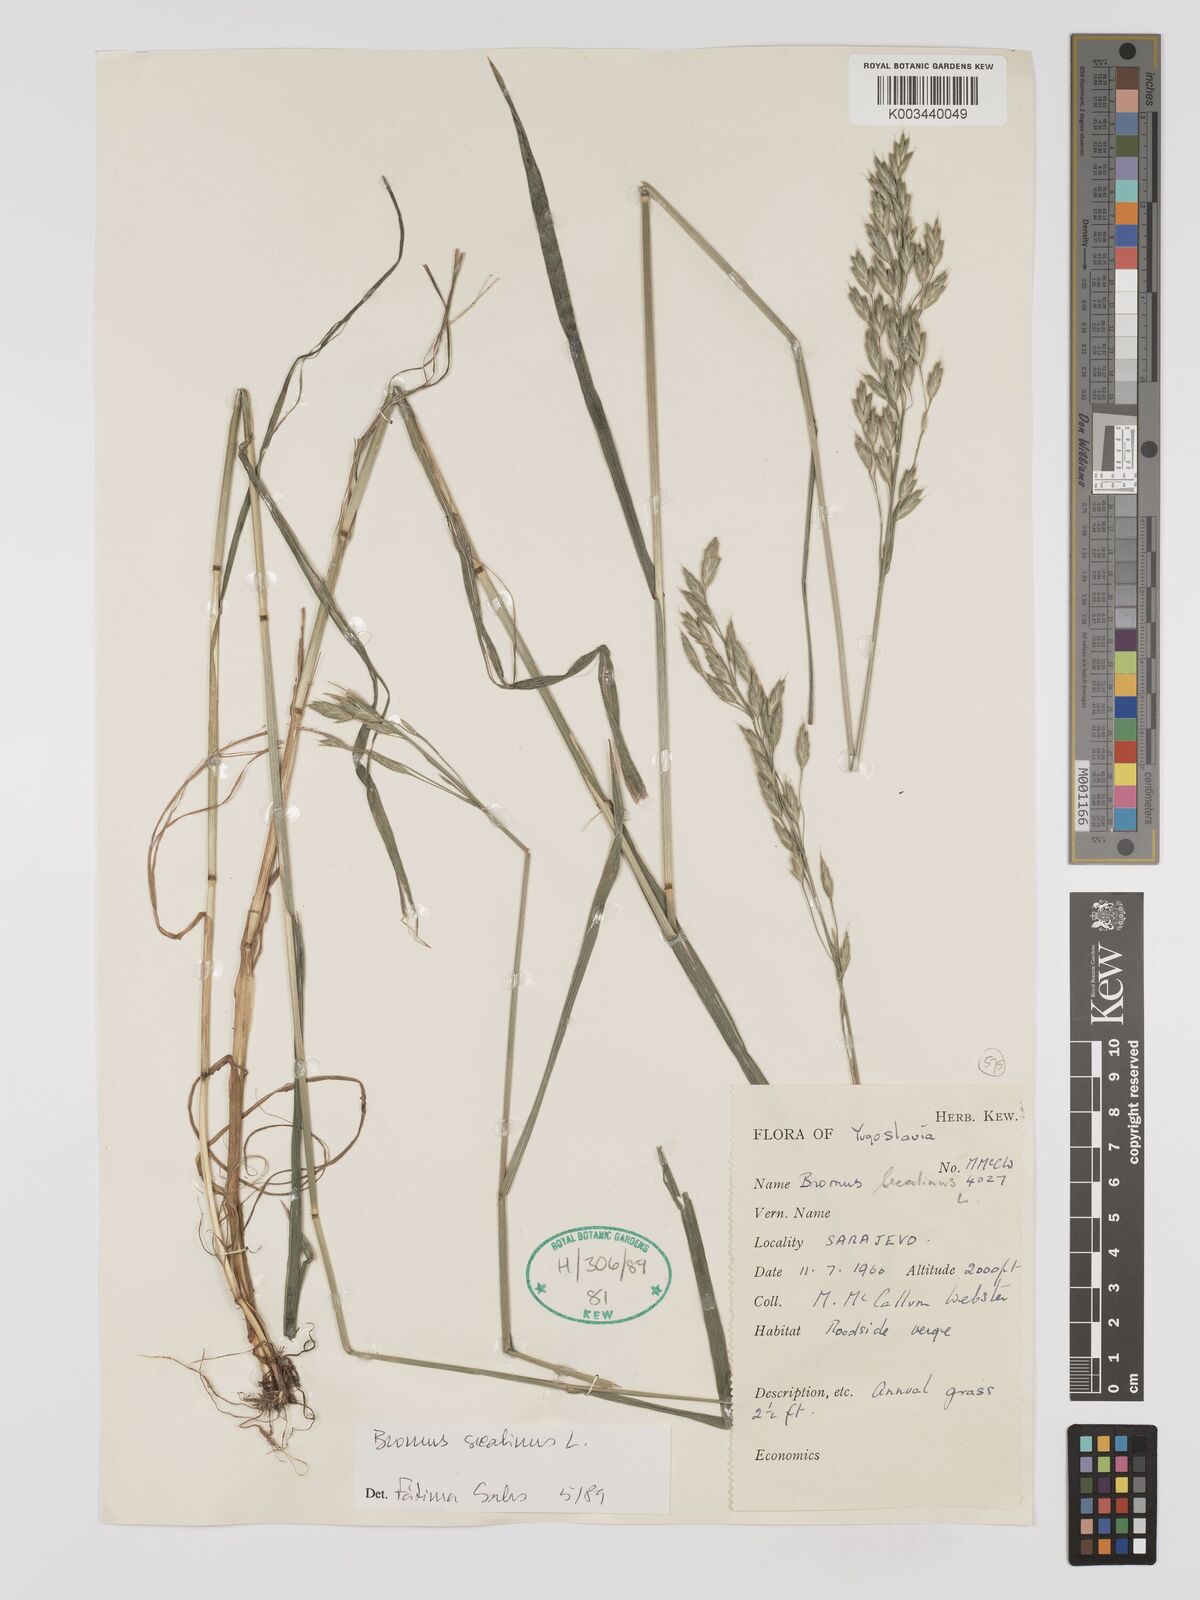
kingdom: Plantae
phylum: Tracheophyta
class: Liliopsida
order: Poales
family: Poaceae
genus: Bromus
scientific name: Bromus secalinus
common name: Rye brome
